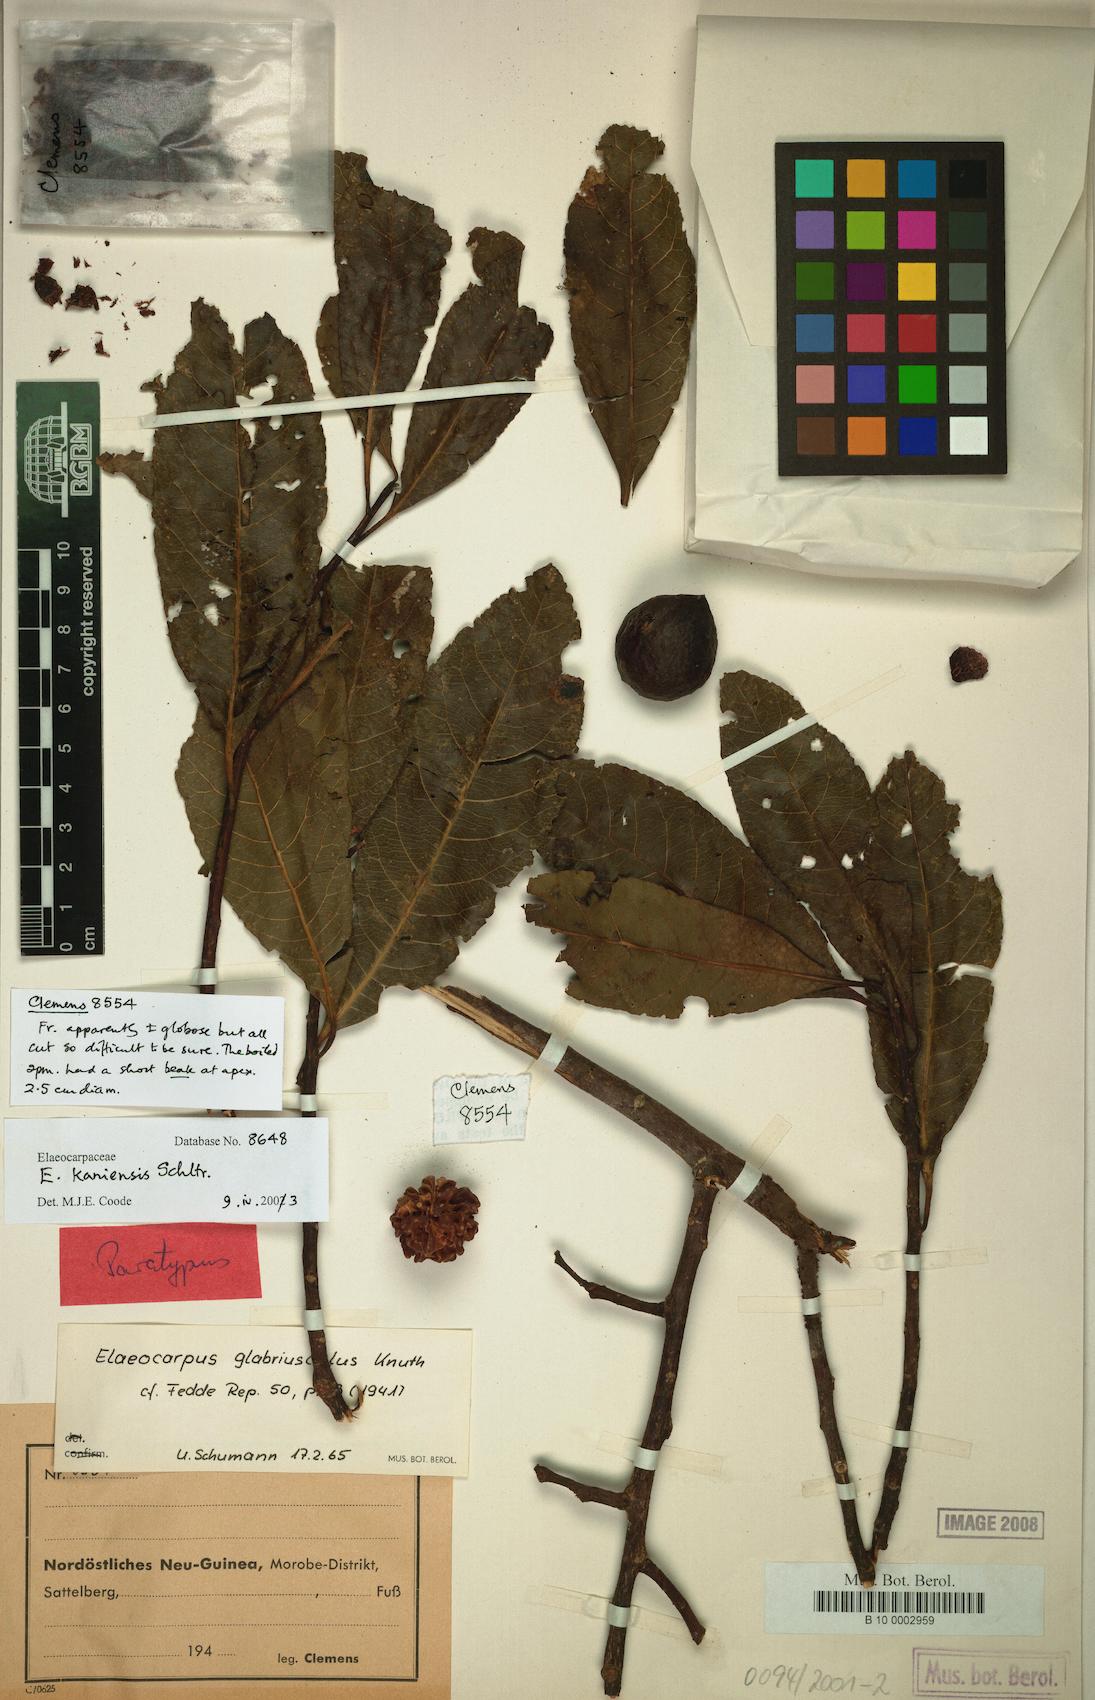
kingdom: Plantae
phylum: Tracheophyta
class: Magnoliopsida
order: Oxalidales
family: Elaeocarpaceae
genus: Elaeocarpus
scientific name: Elaeocarpus kaniensis
